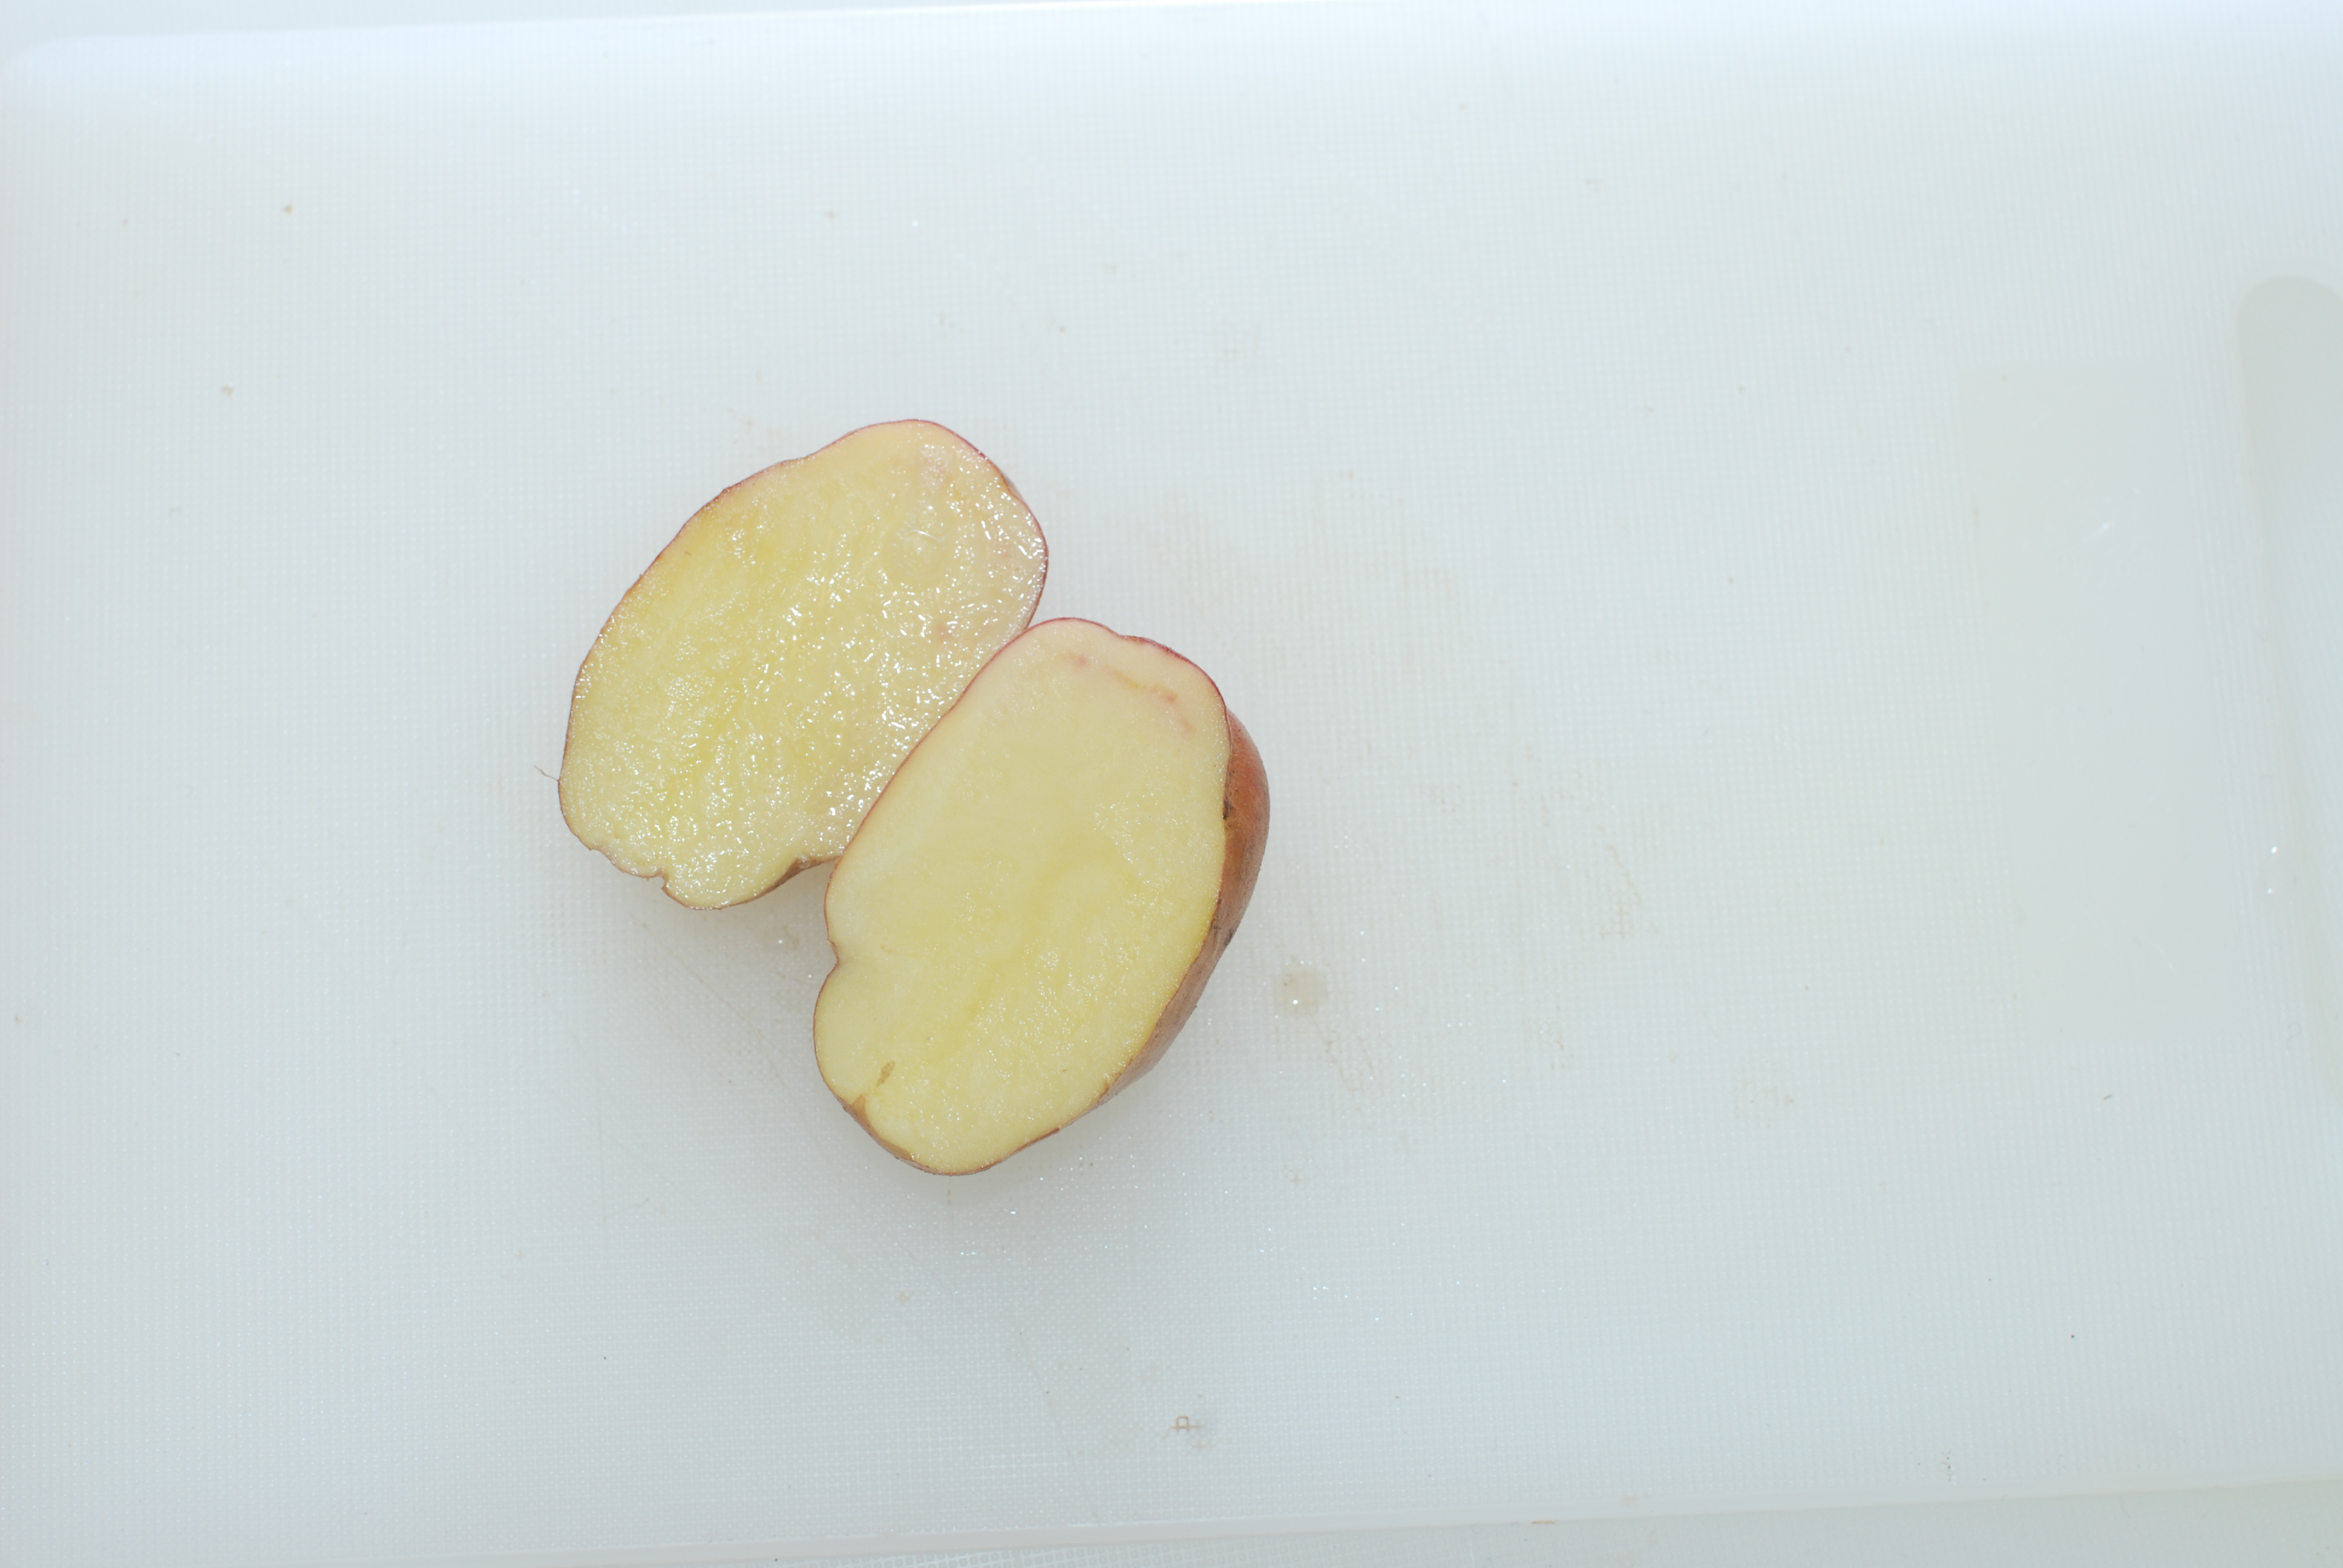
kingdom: Plantae
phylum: Tracheophyta
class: Magnoliopsida
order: Solanales
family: Solanaceae
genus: Solanum
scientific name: Solanum tuberosum
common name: Potato
